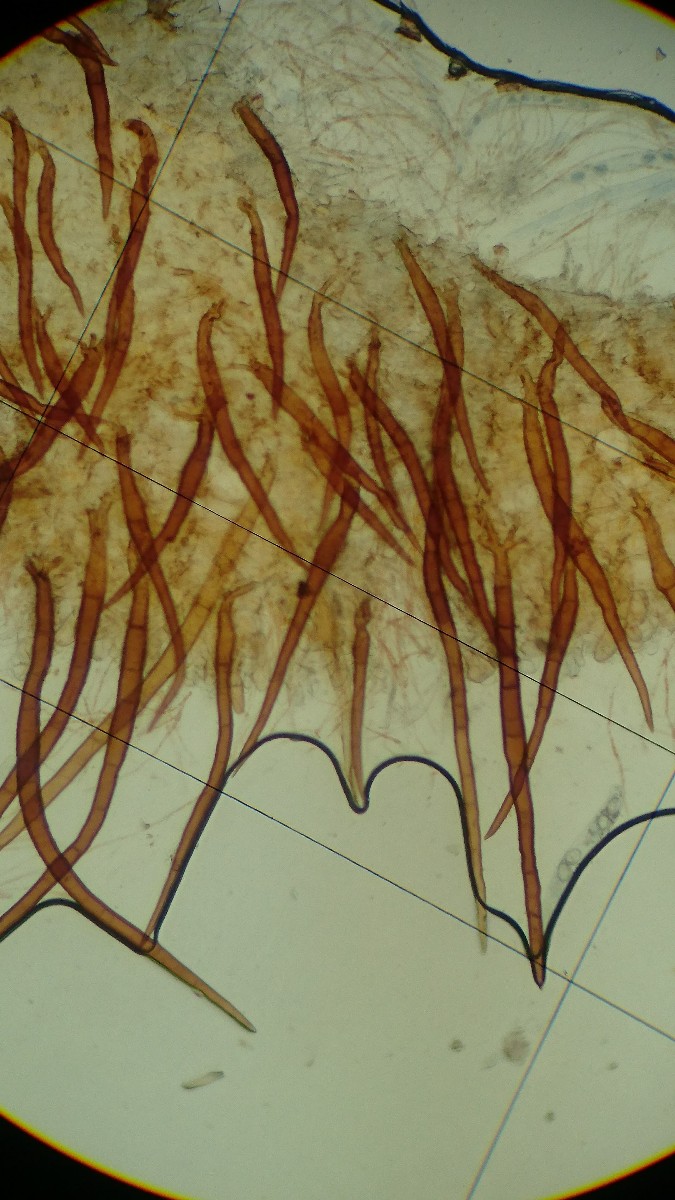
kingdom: Fungi
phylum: Ascomycota
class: Pezizomycetes
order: Pezizales
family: Pyronemataceae
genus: Scutellinia
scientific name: Scutellinia
